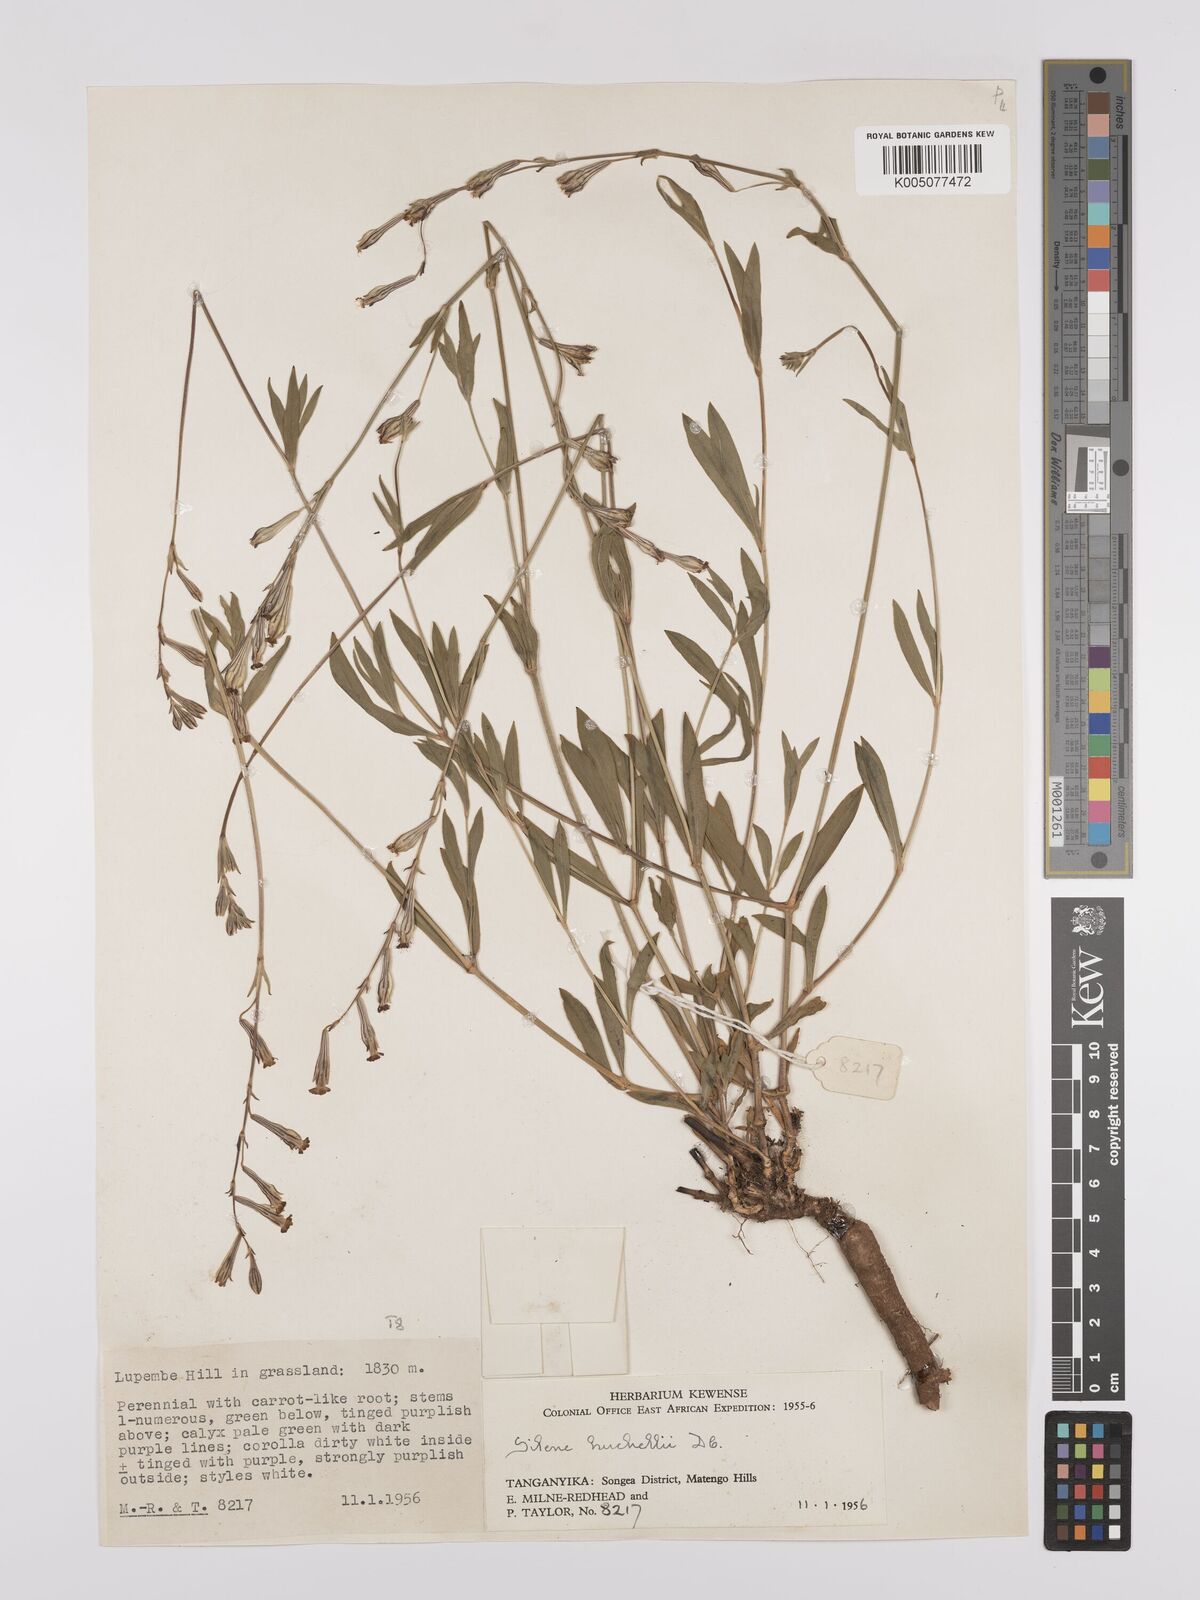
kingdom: Plantae
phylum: Tracheophyta
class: Magnoliopsida
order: Caryophyllales
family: Caryophyllaceae
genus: Silene
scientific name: Silene burchellii
